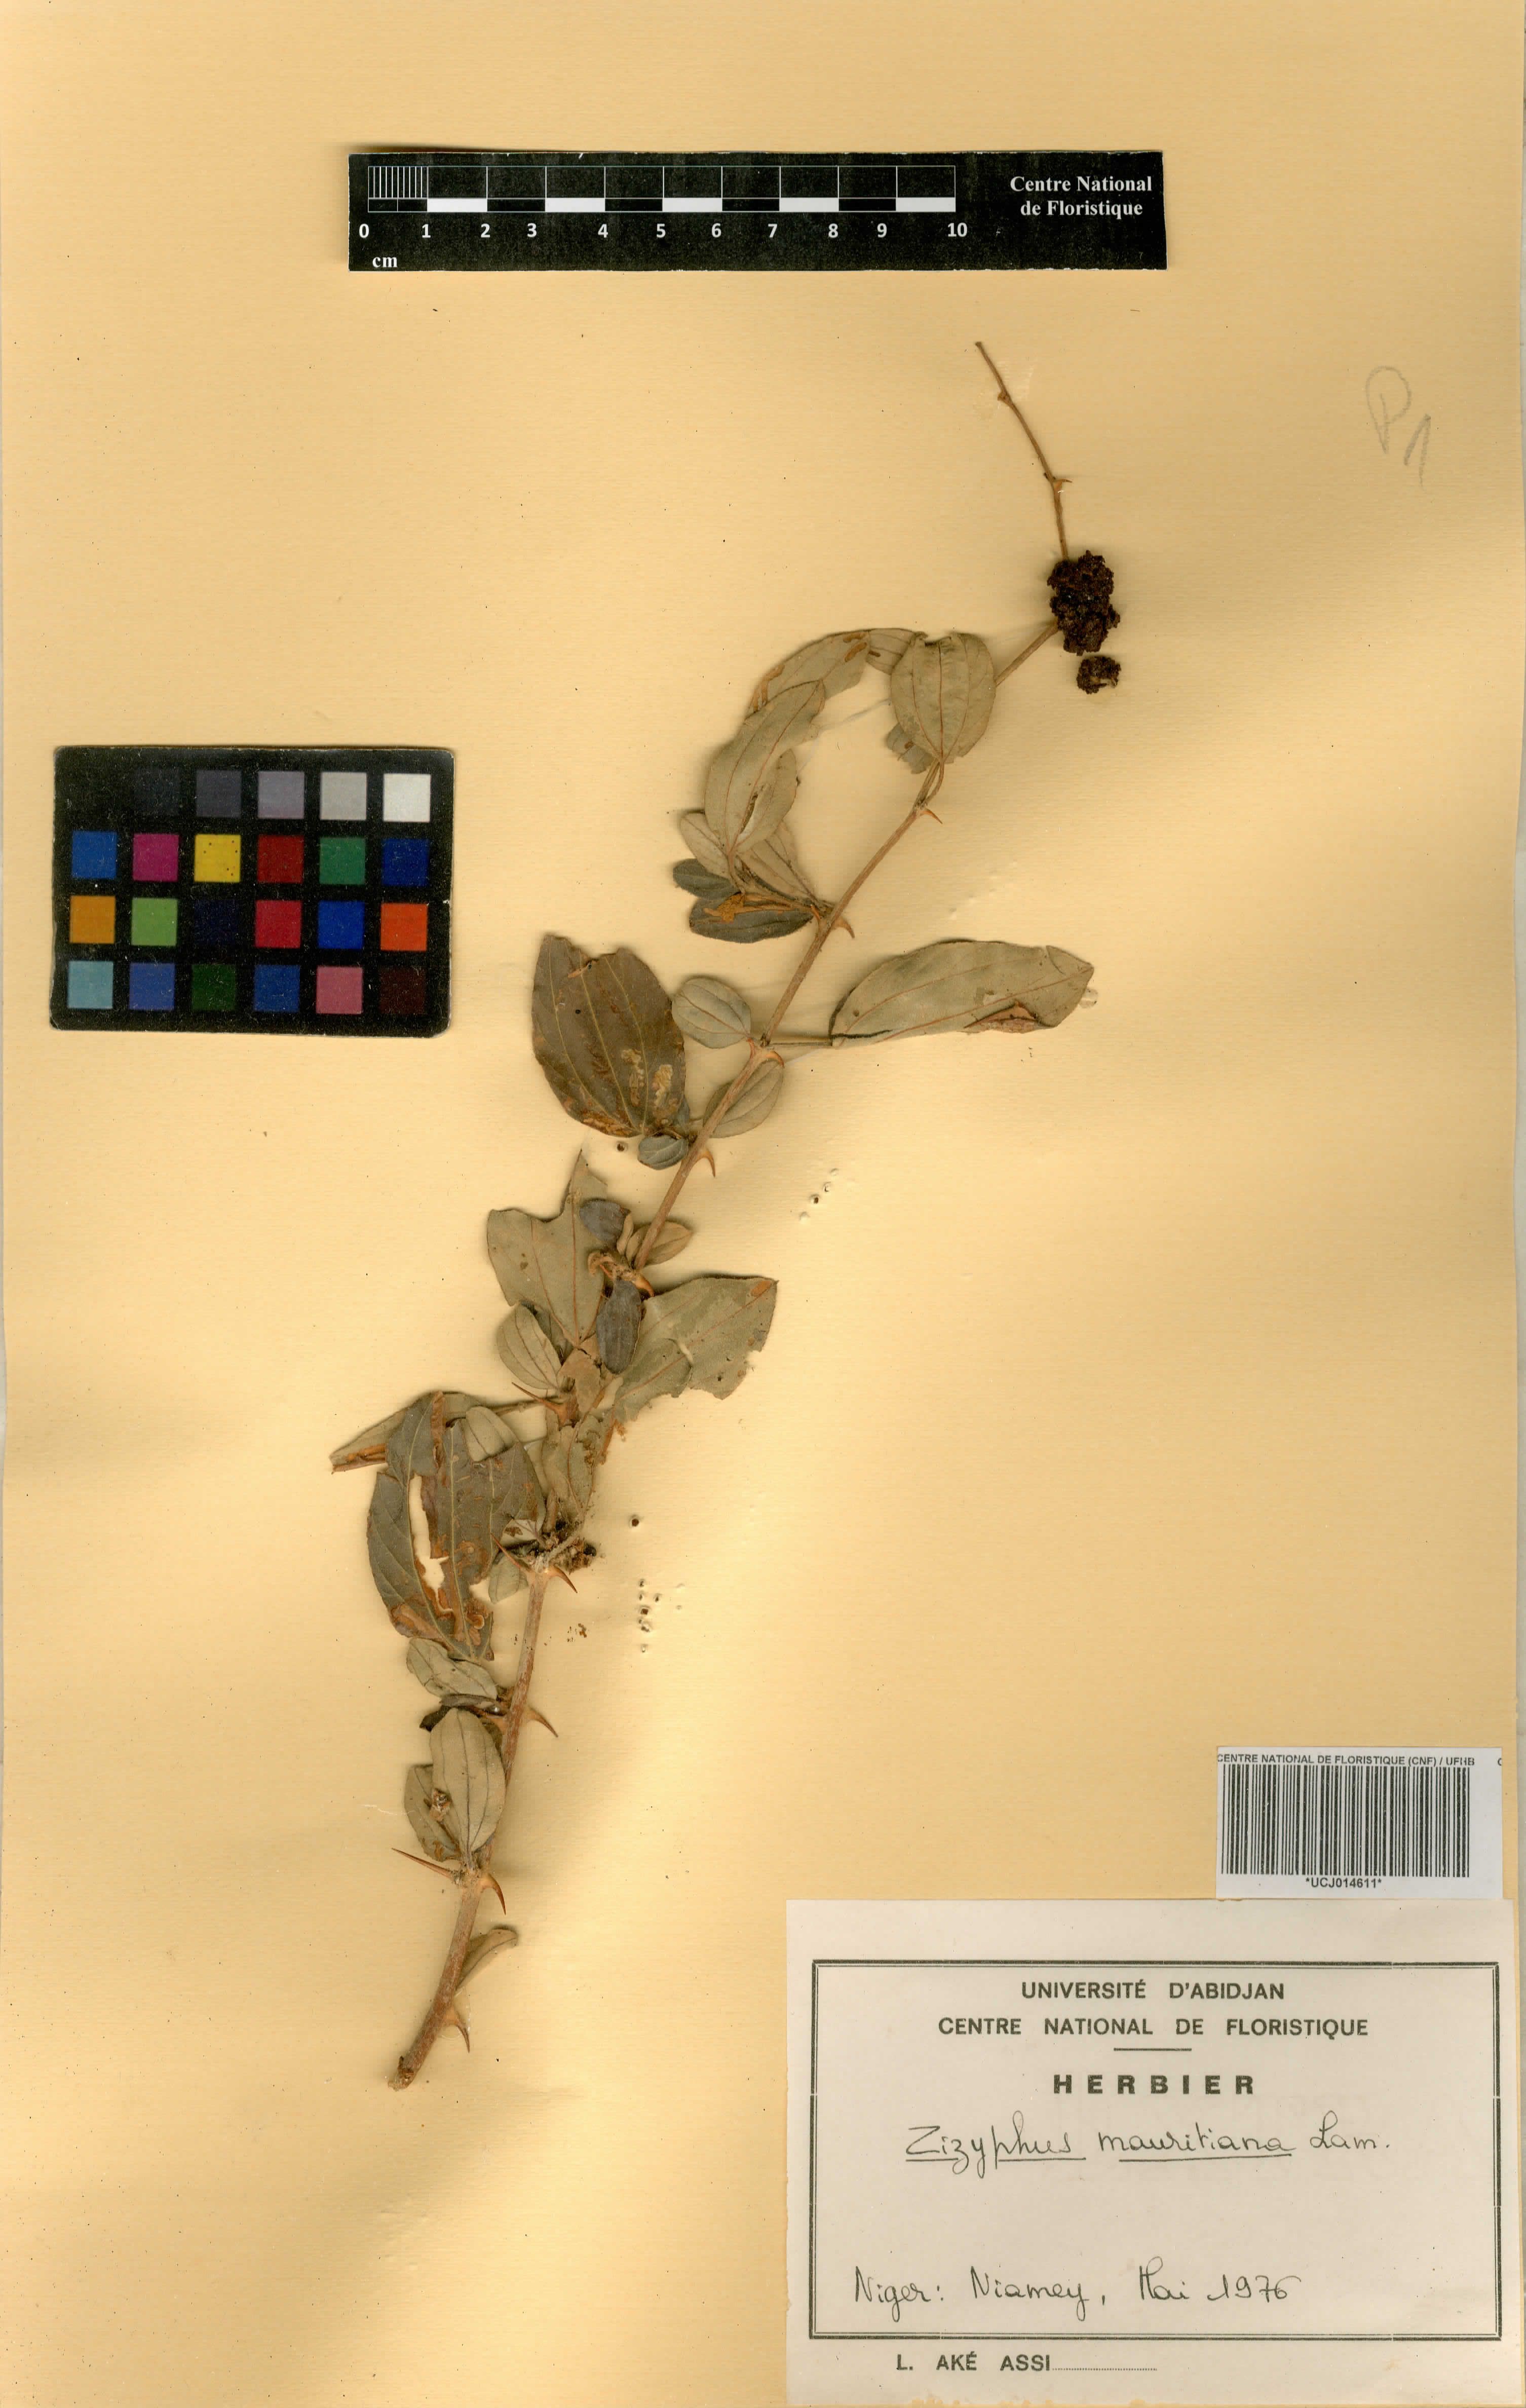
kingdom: Plantae
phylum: Tracheophyta
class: Magnoliopsida
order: Rosales
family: Rhamnaceae
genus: Ziziphus
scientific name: Ziziphus mauritiana
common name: Indian jujube
